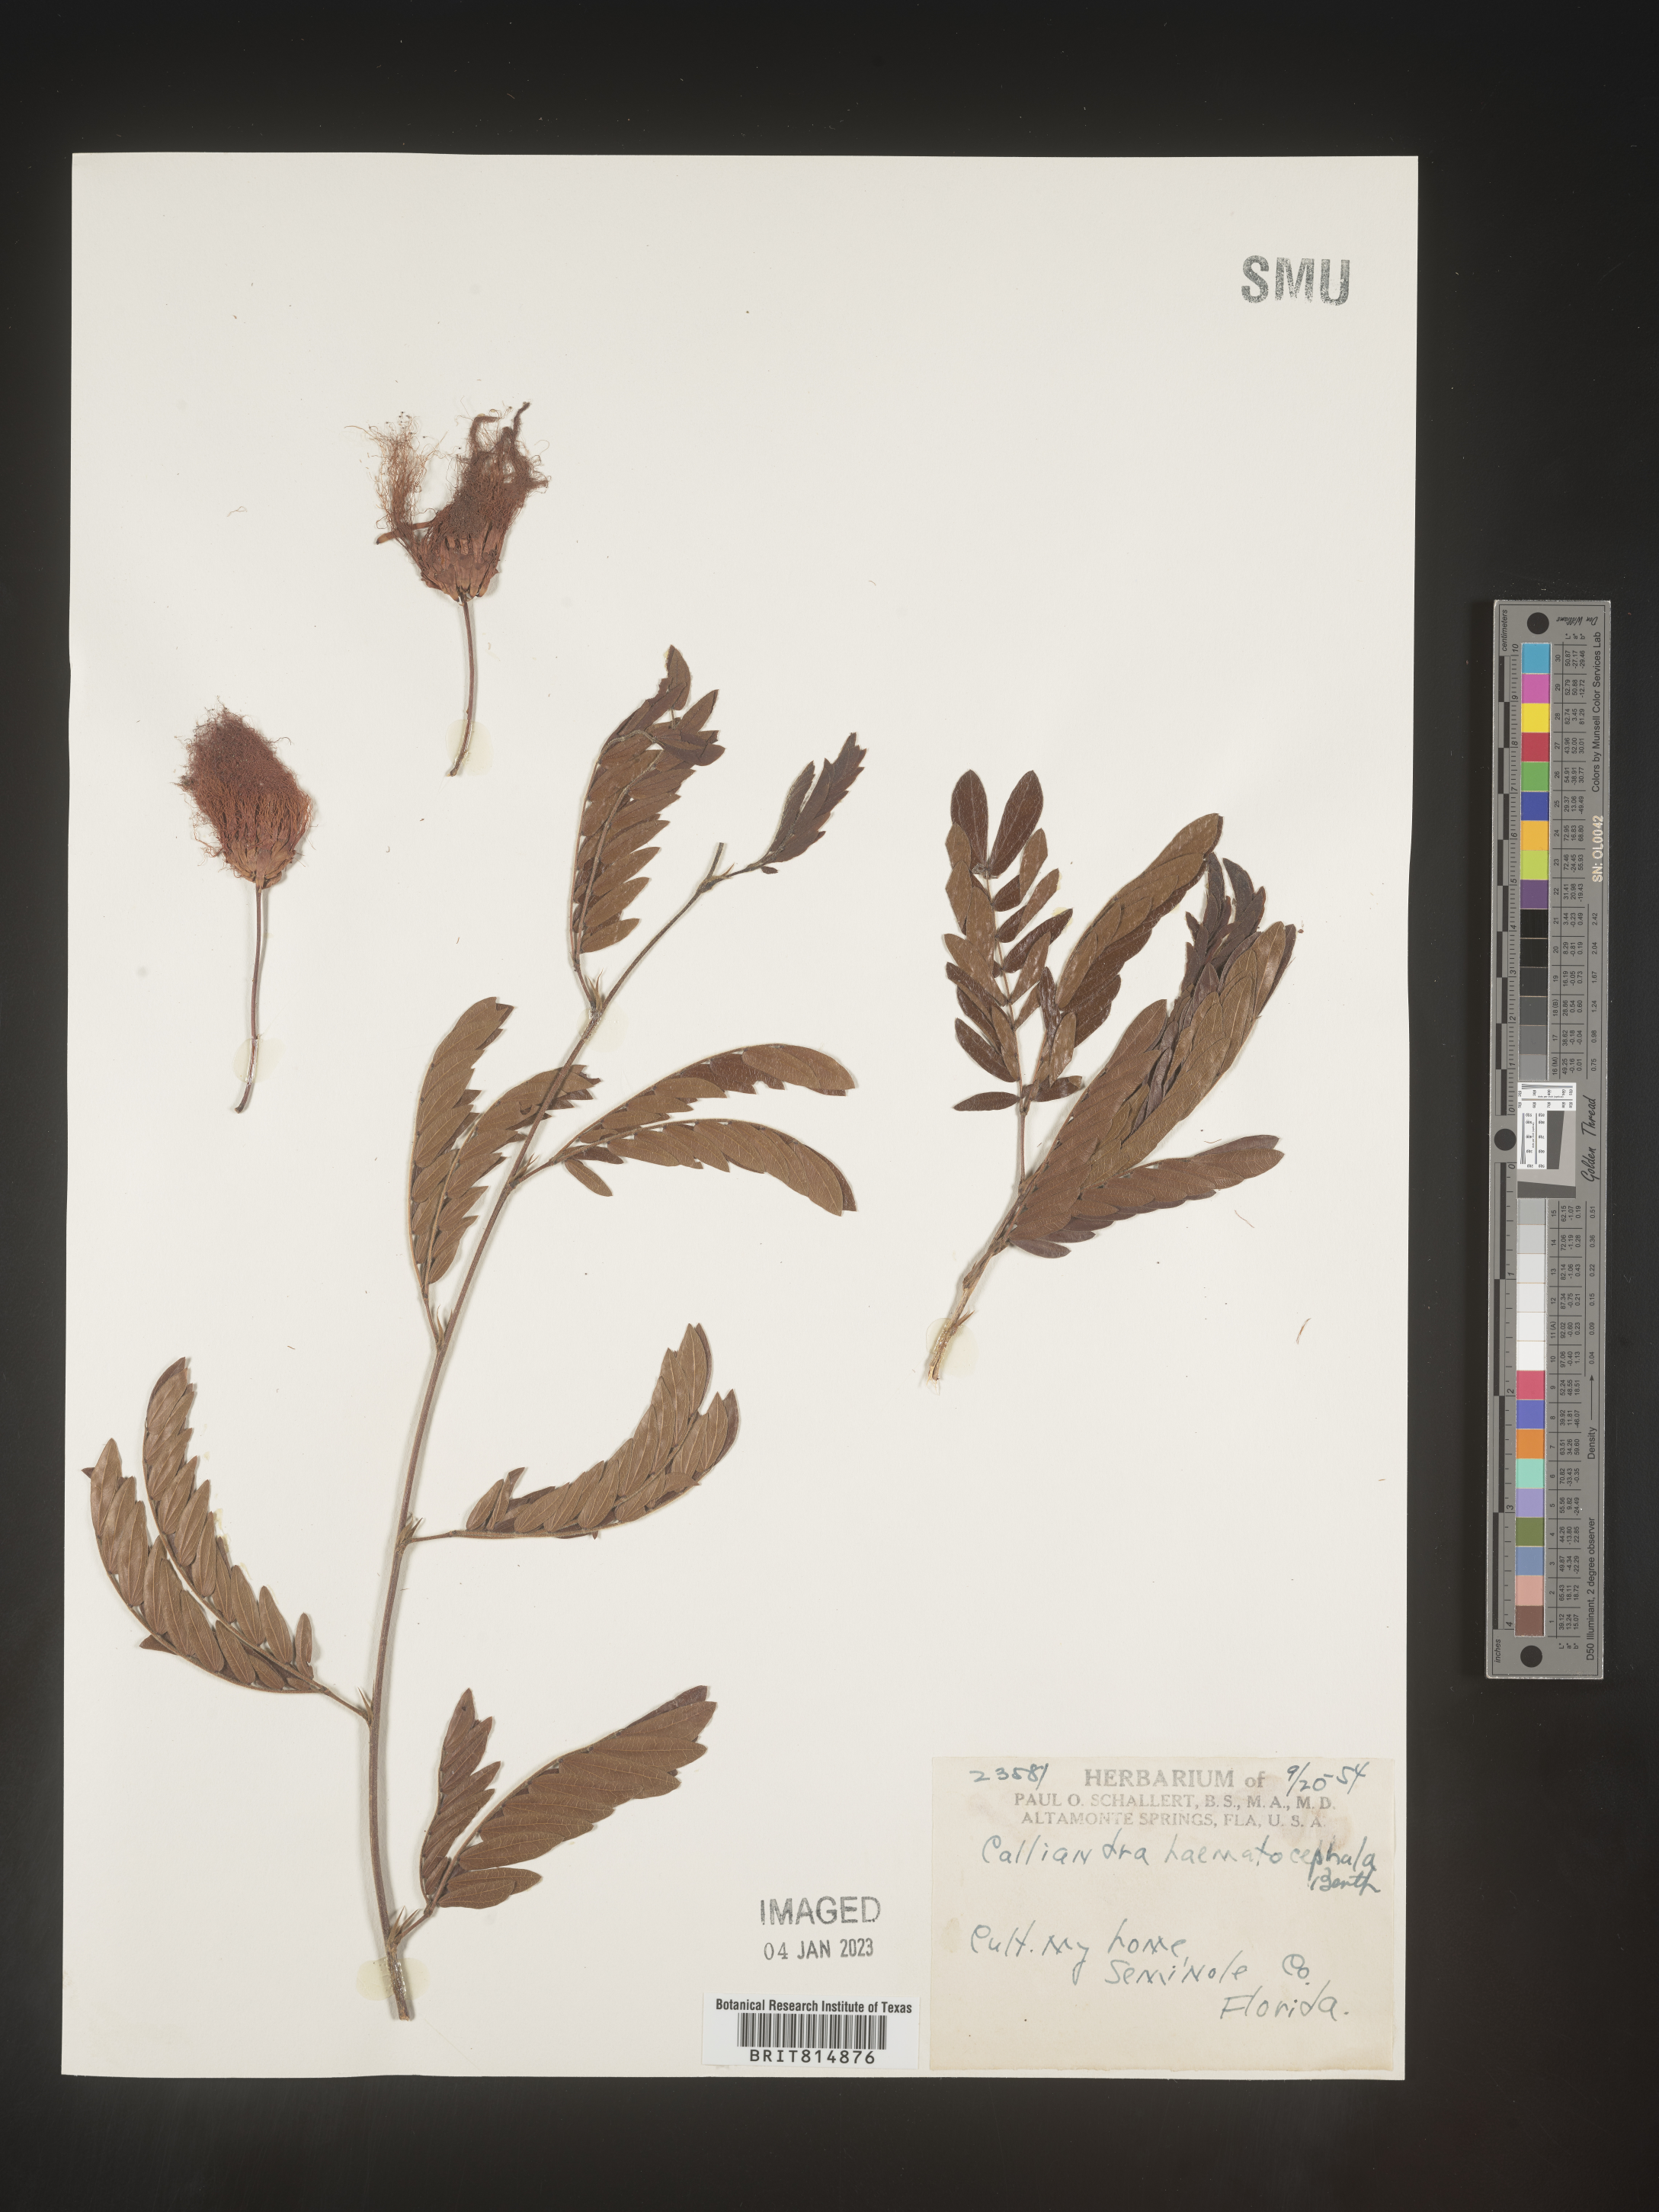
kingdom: Plantae
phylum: Tracheophyta
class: Magnoliopsida
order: Fabales
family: Fabaceae
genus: Calliandra
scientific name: Calliandra
